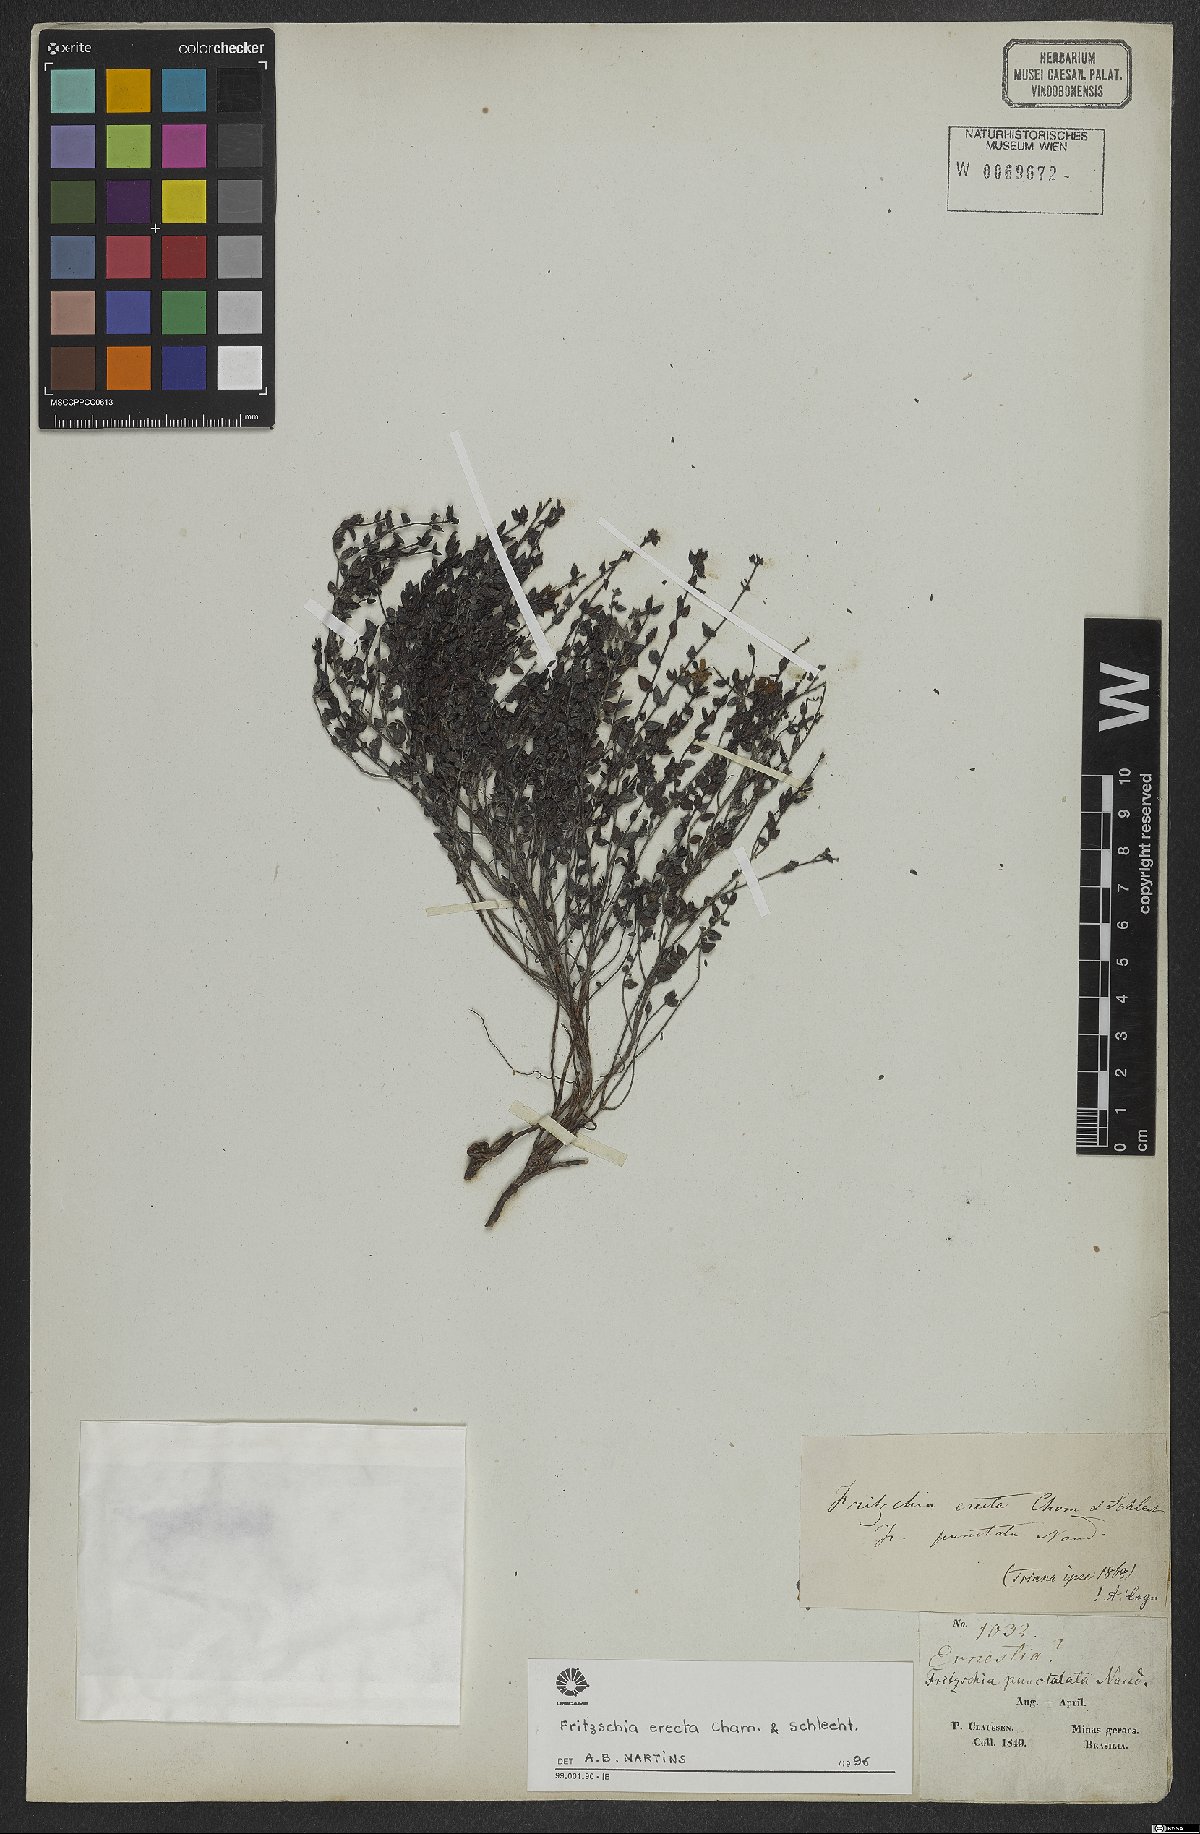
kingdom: Plantae
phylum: Tracheophyta
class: Magnoliopsida
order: Myrtales
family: Melastomataceae
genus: Fritzschia
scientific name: Fritzschia erecta
